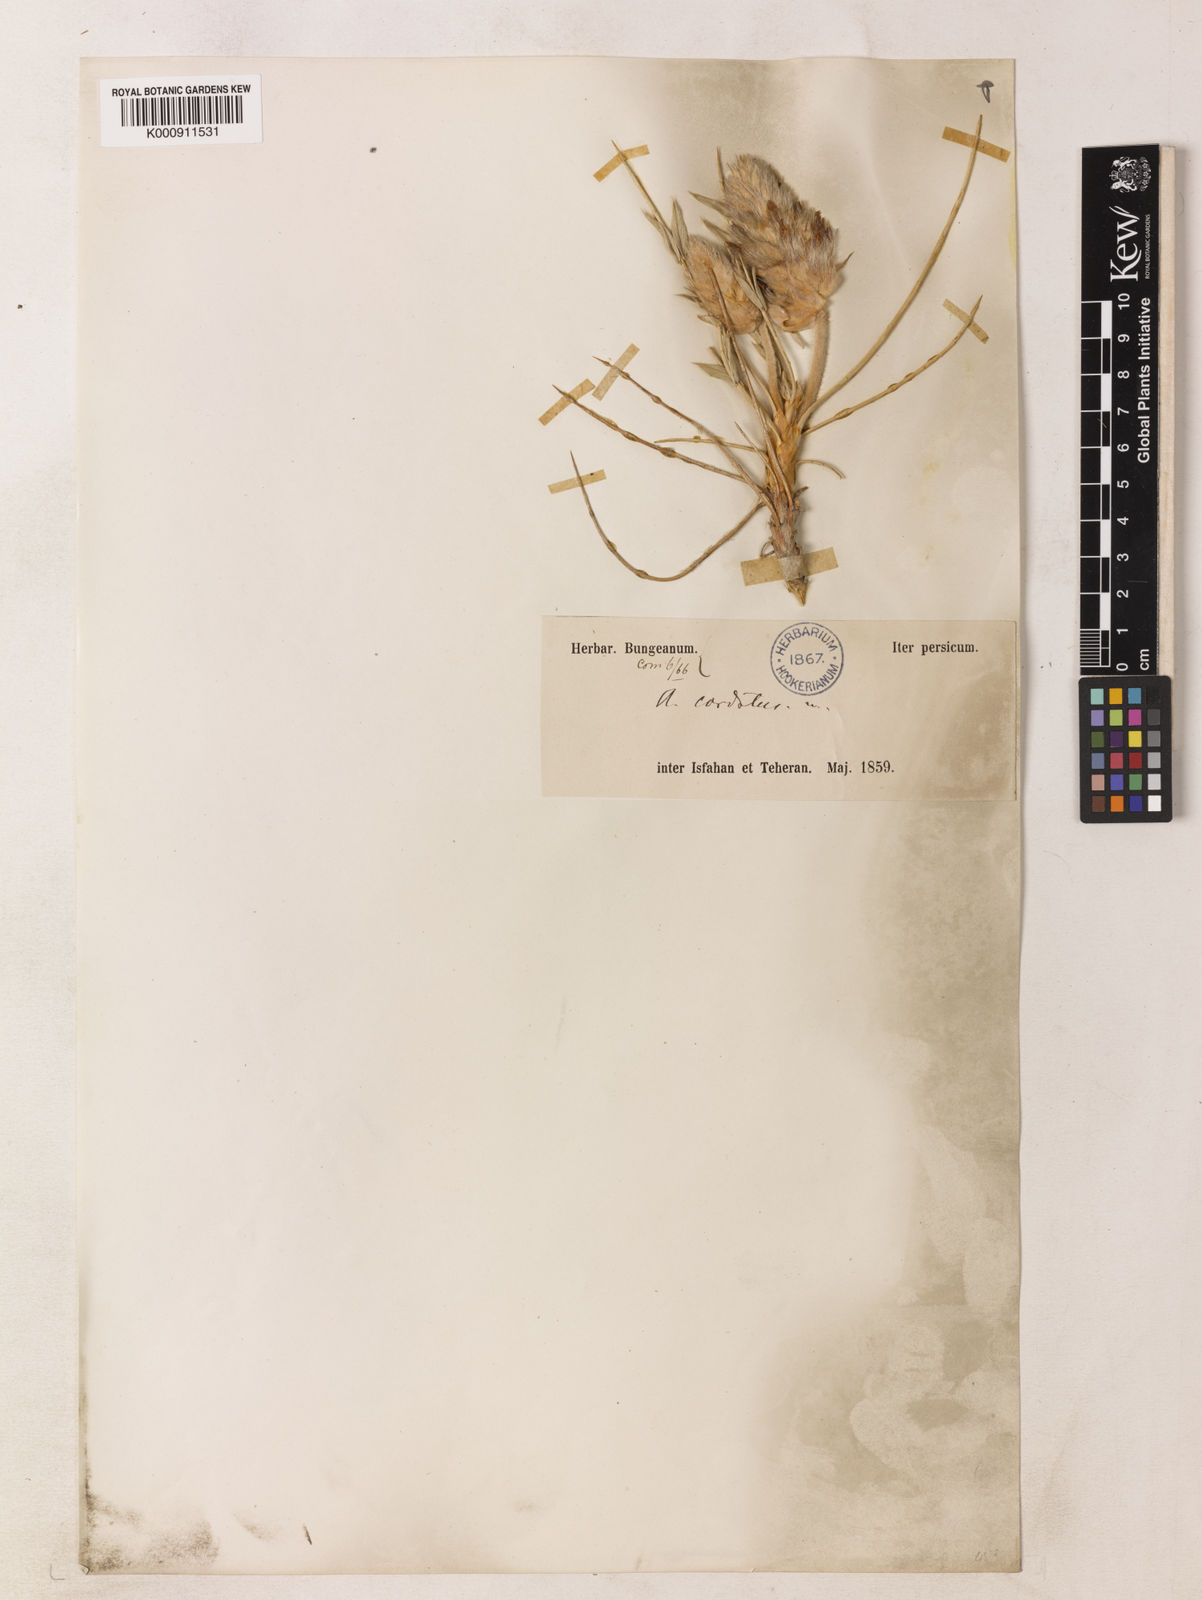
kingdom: Plantae
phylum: Tracheophyta
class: Magnoliopsida
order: Fabales
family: Fabaceae
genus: Astragalus
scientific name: Astragalus elegans
